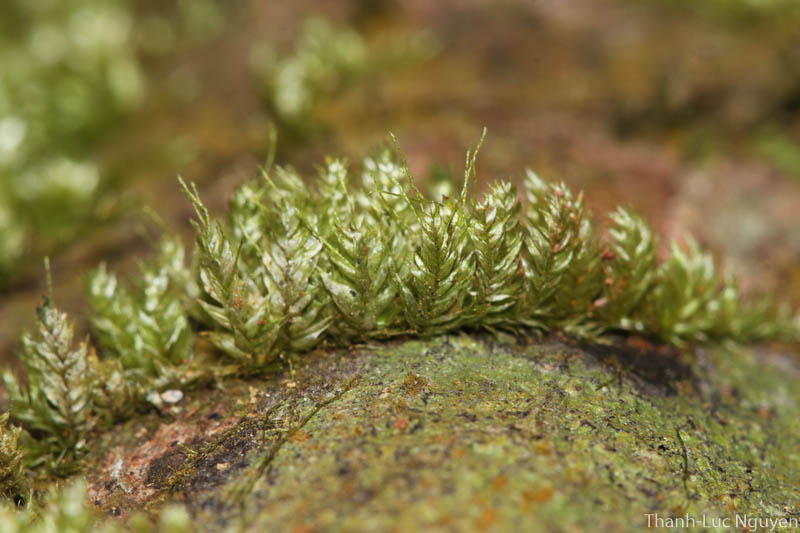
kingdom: Plantae
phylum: Bryophyta
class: Bryopsida
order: Hypnales
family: Pylaisiadelphaceae
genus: Gammiella
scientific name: Gammiella
